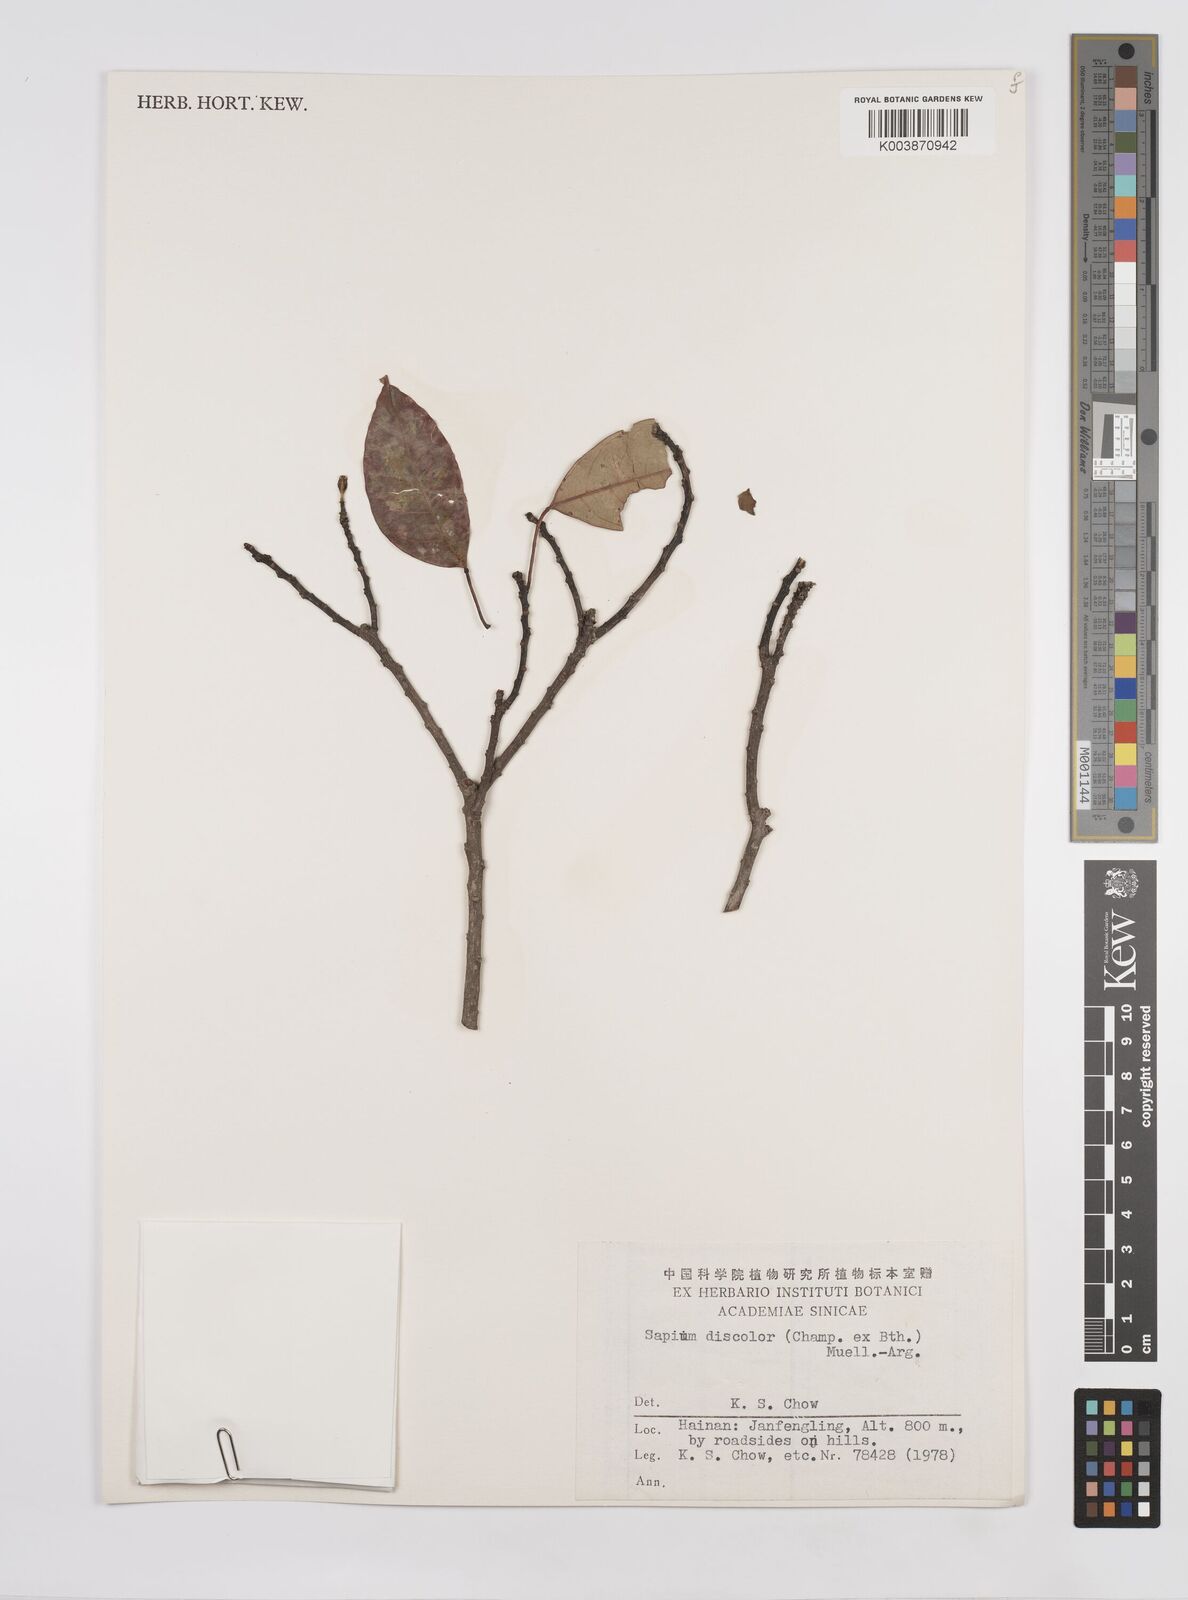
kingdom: Plantae
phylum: Tracheophyta
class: Magnoliopsida
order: Malpighiales
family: Euphorbiaceae
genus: Triadica
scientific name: Triadica cochinchinensis
